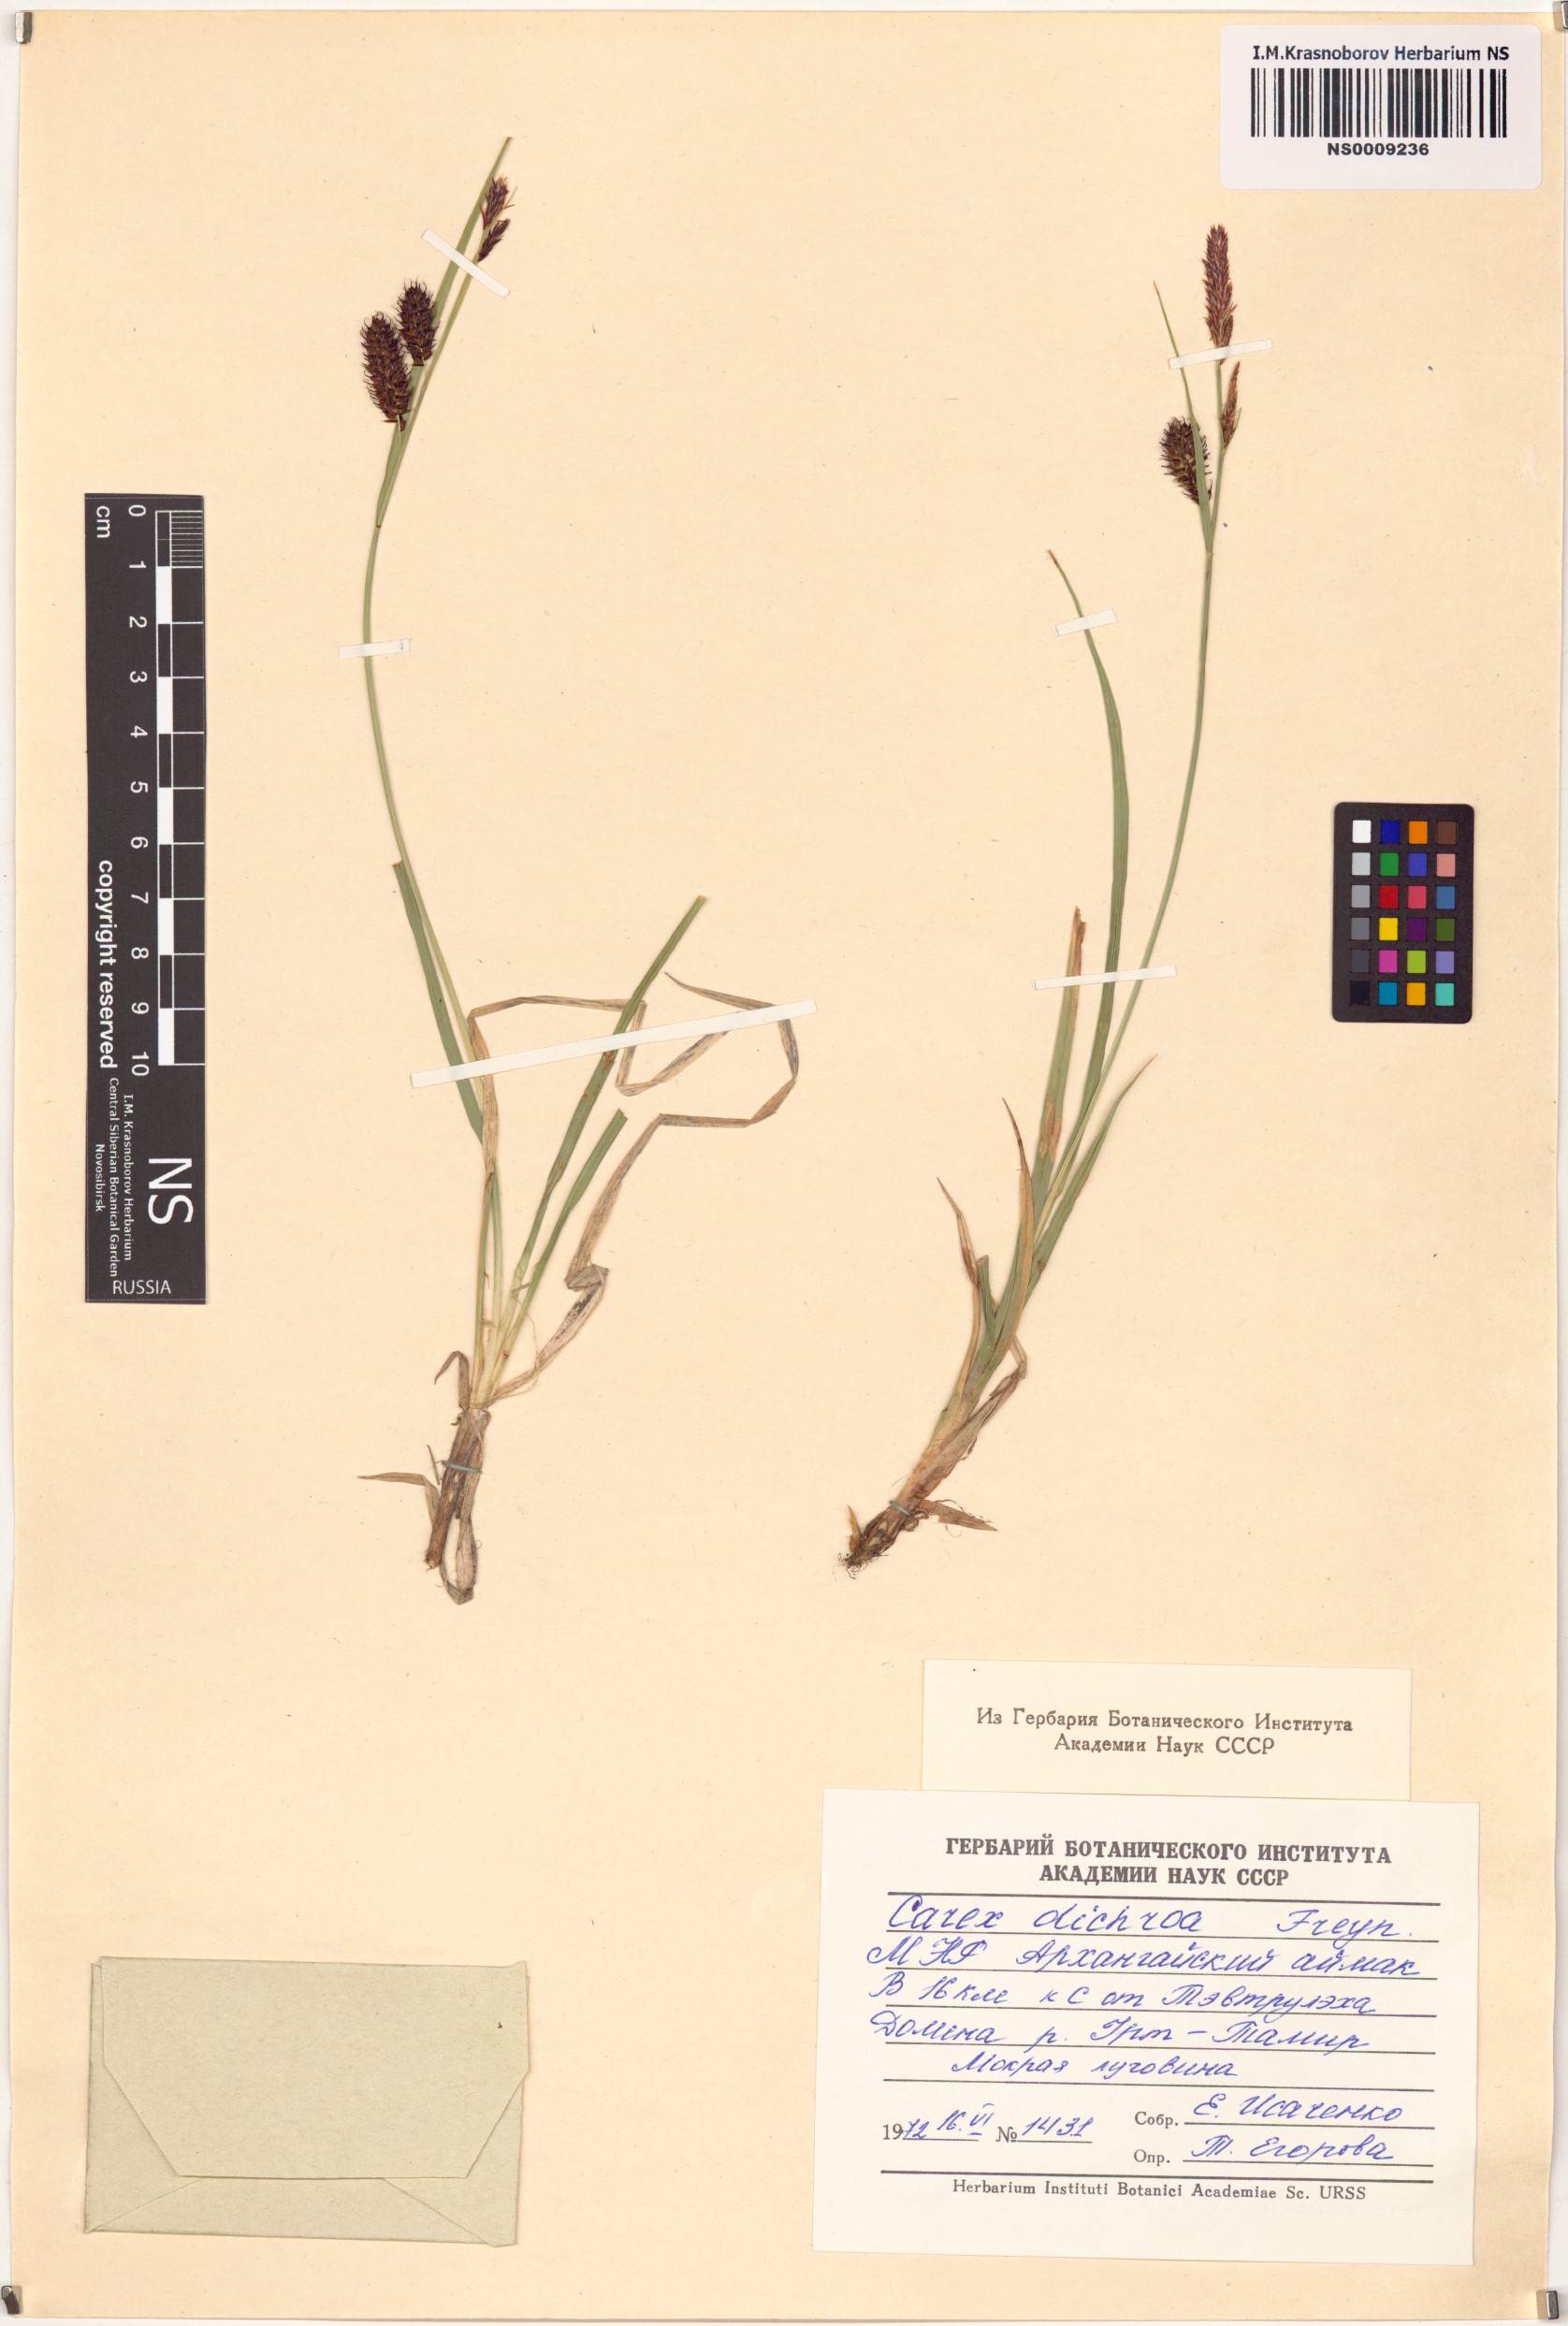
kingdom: Plantae
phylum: Tracheophyta
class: Liliopsida
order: Poales
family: Cyperaceae
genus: Carex
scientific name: Carex pamirensis
